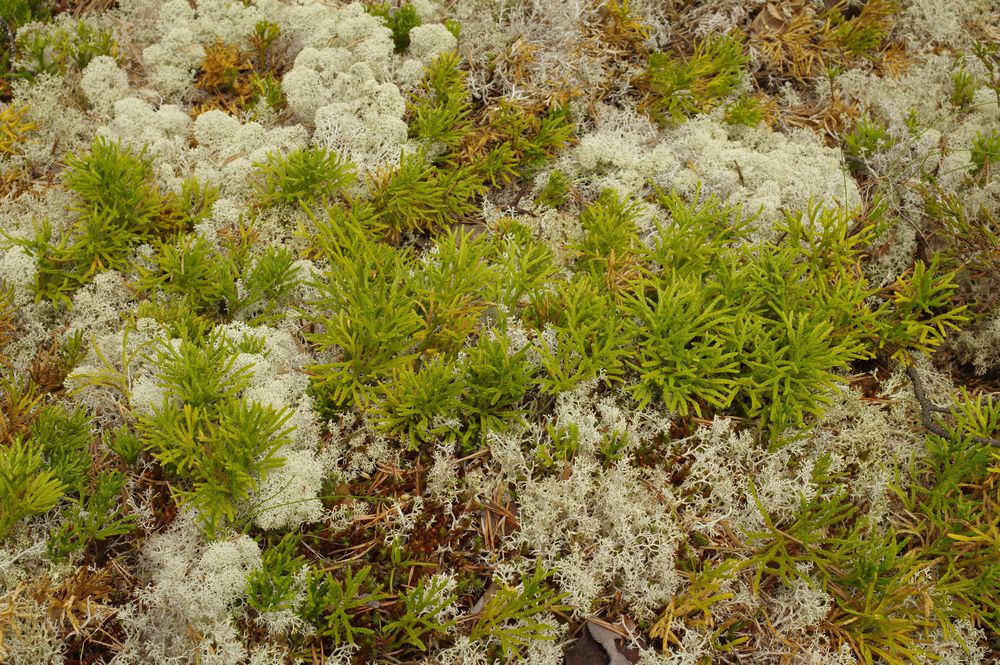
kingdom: Plantae
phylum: Tracheophyta
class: Lycopodiopsida
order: Lycopodiales
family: Lycopodiaceae
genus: Diphasiastrum
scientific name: Diphasiastrum complanatum
